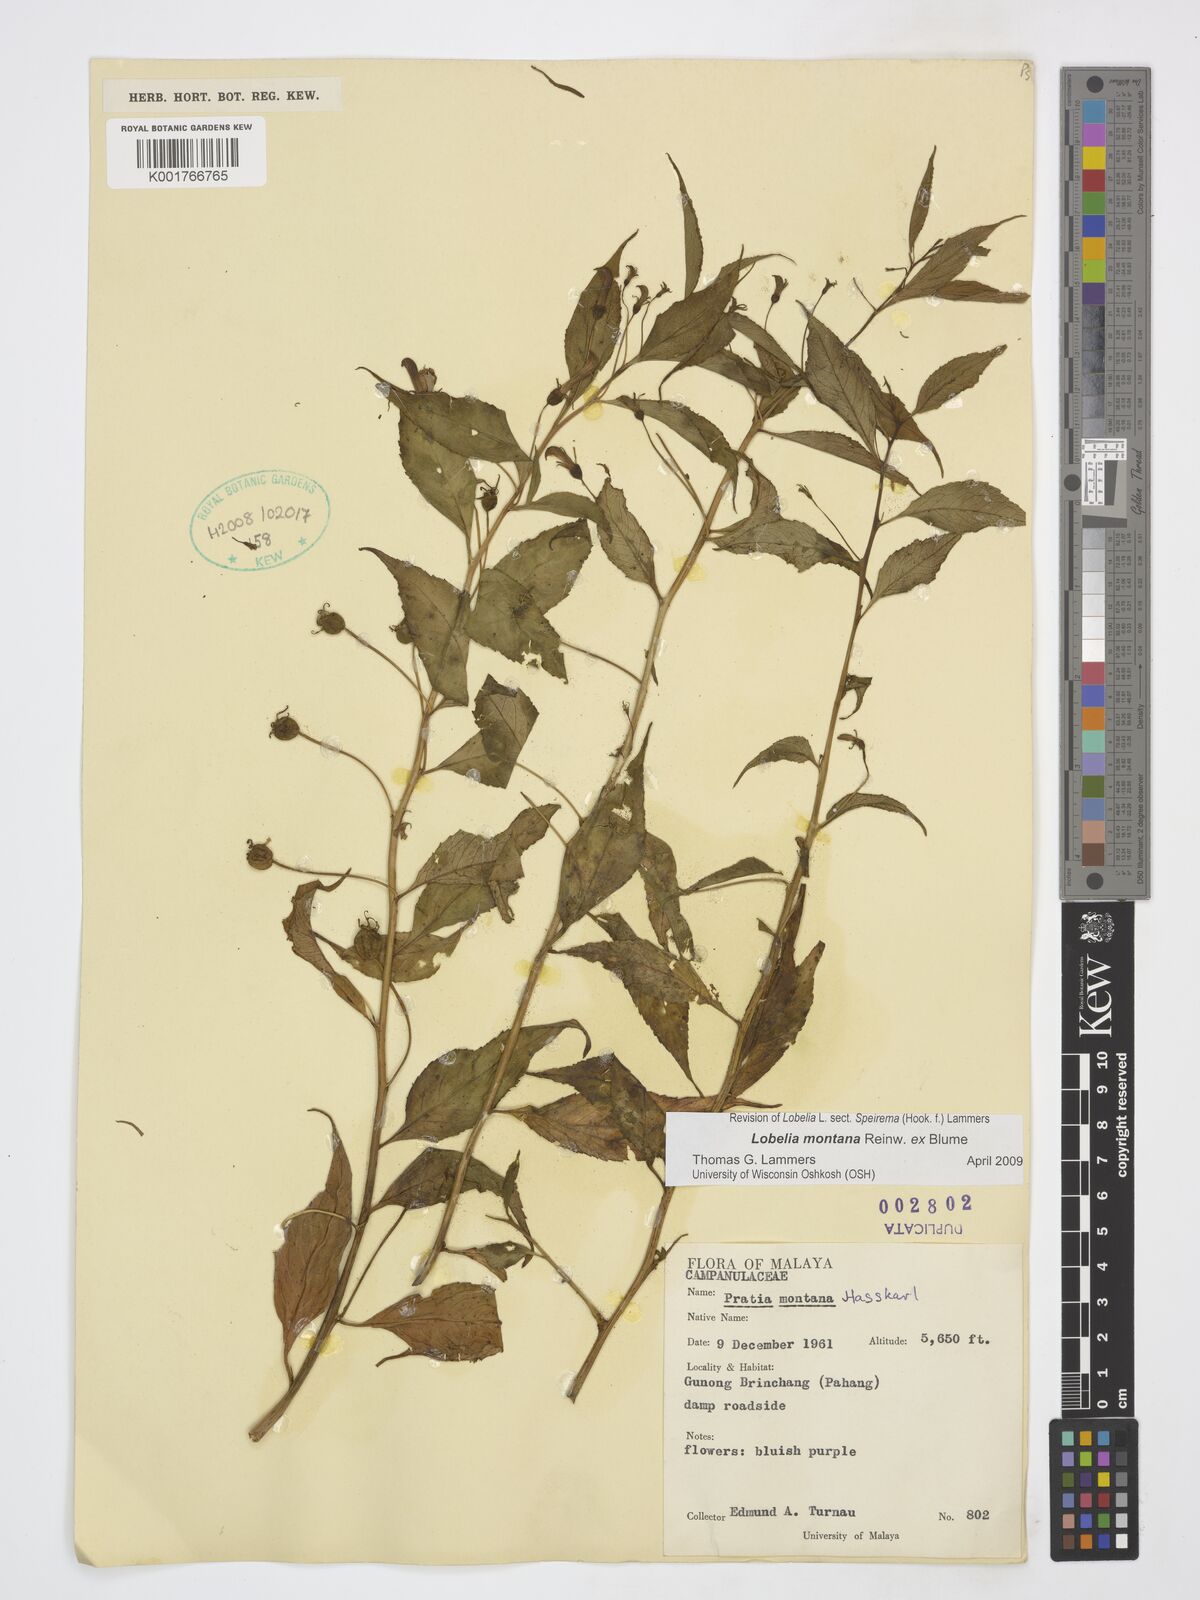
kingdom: Plantae
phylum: Tracheophyta
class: Magnoliopsida
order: Asterales
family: Campanulaceae
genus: Lobelia
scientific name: Lobelia montana
